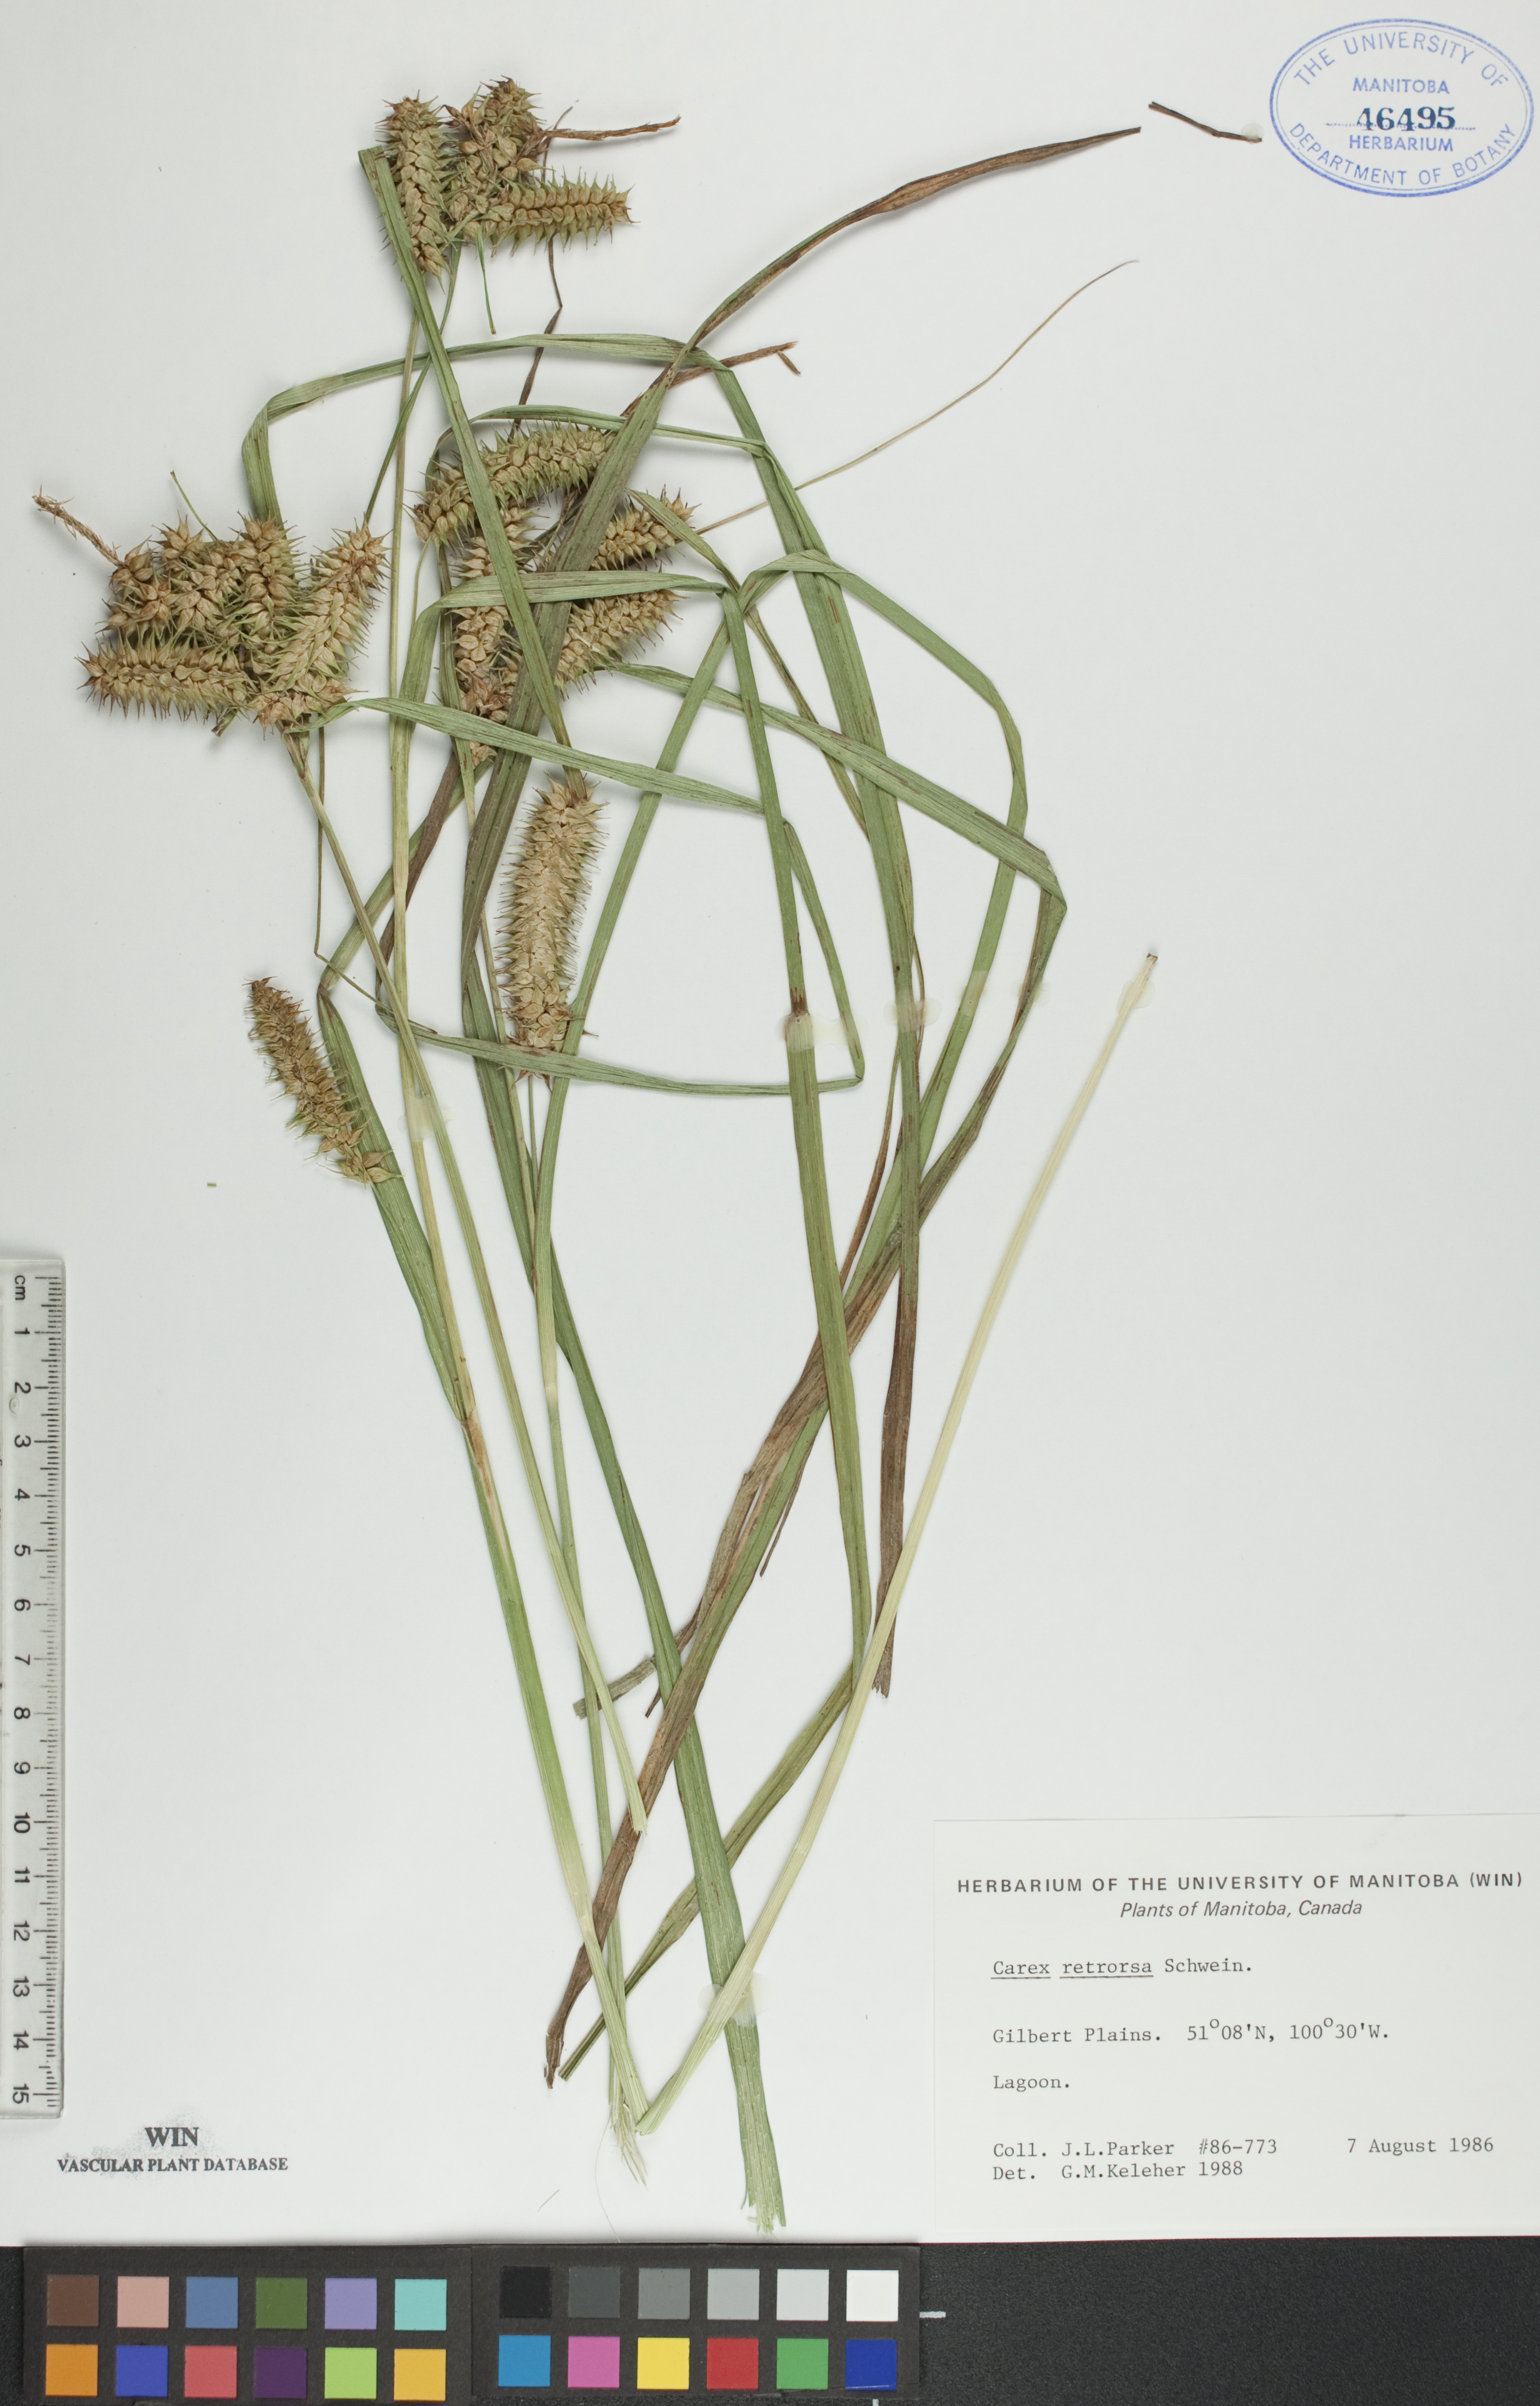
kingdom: Plantae
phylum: Tracheophyta
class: Liliopsida
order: Poales
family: Cyperaceae
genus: Carex
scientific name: Carex retrorsa
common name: Knot-sheath sedge
